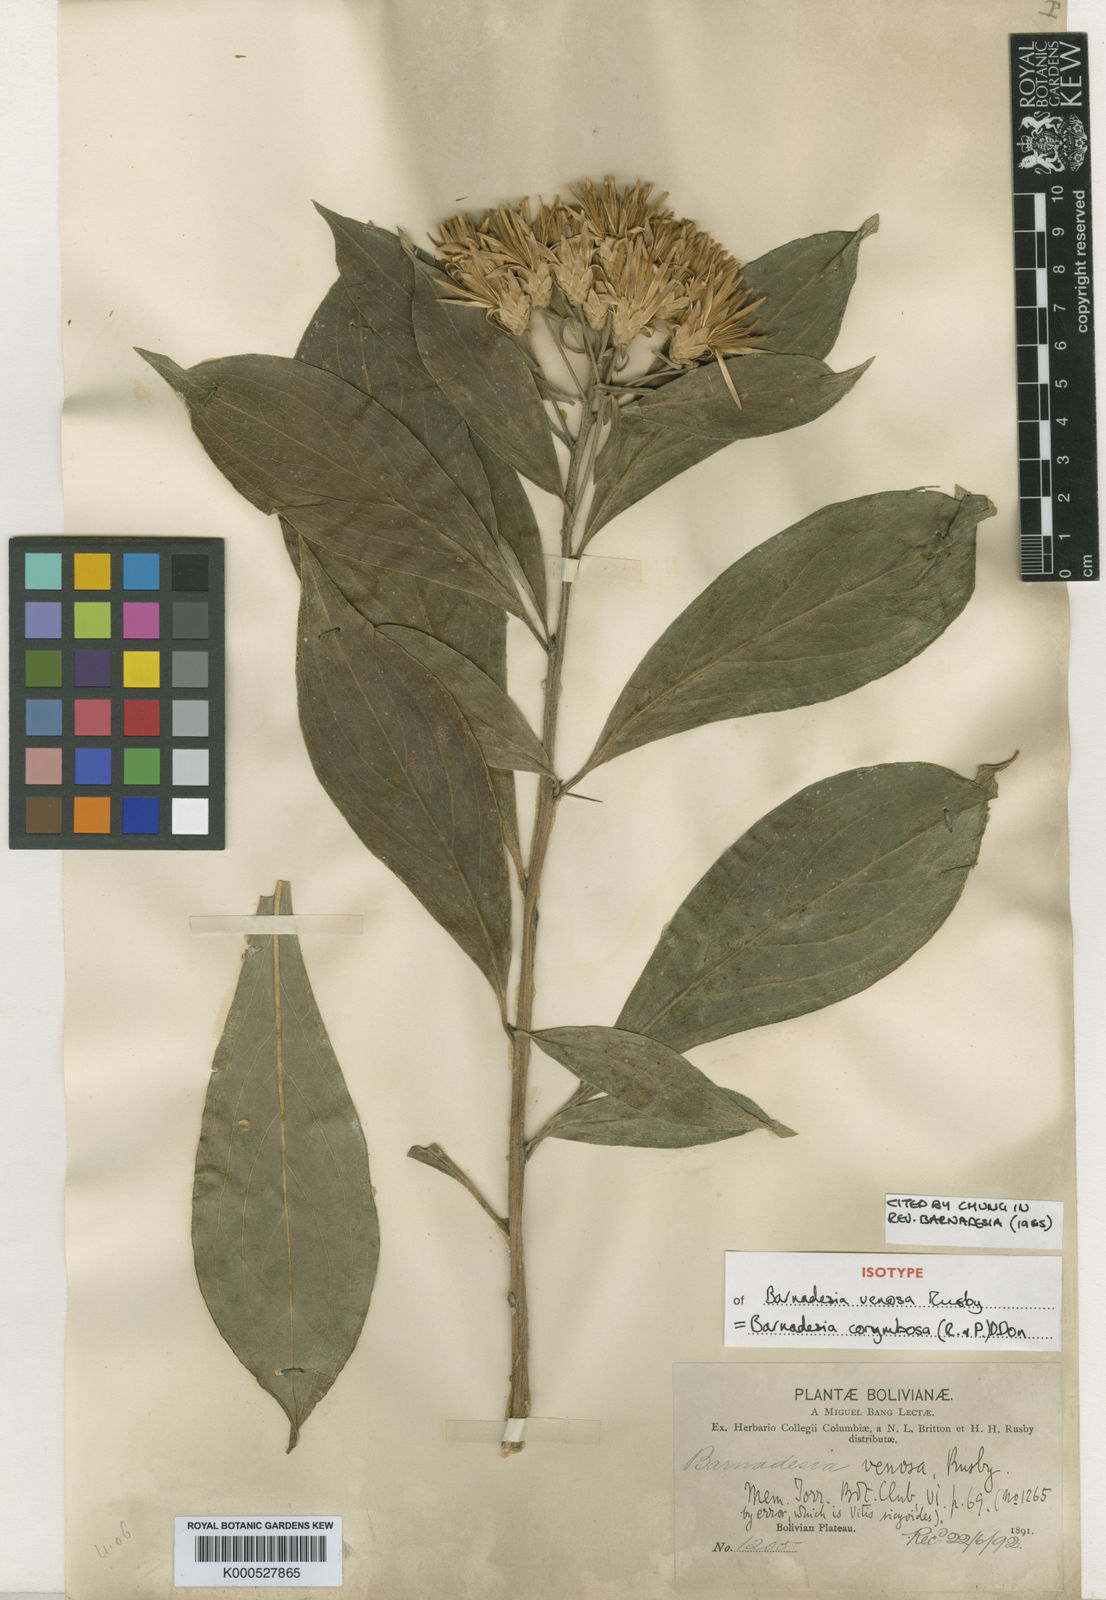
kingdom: Plantae
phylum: Tracheophyta
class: Magnoliopsida
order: Asterales
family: Asteraceae
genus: Barnadesia
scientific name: Barnadesia corymbosa
